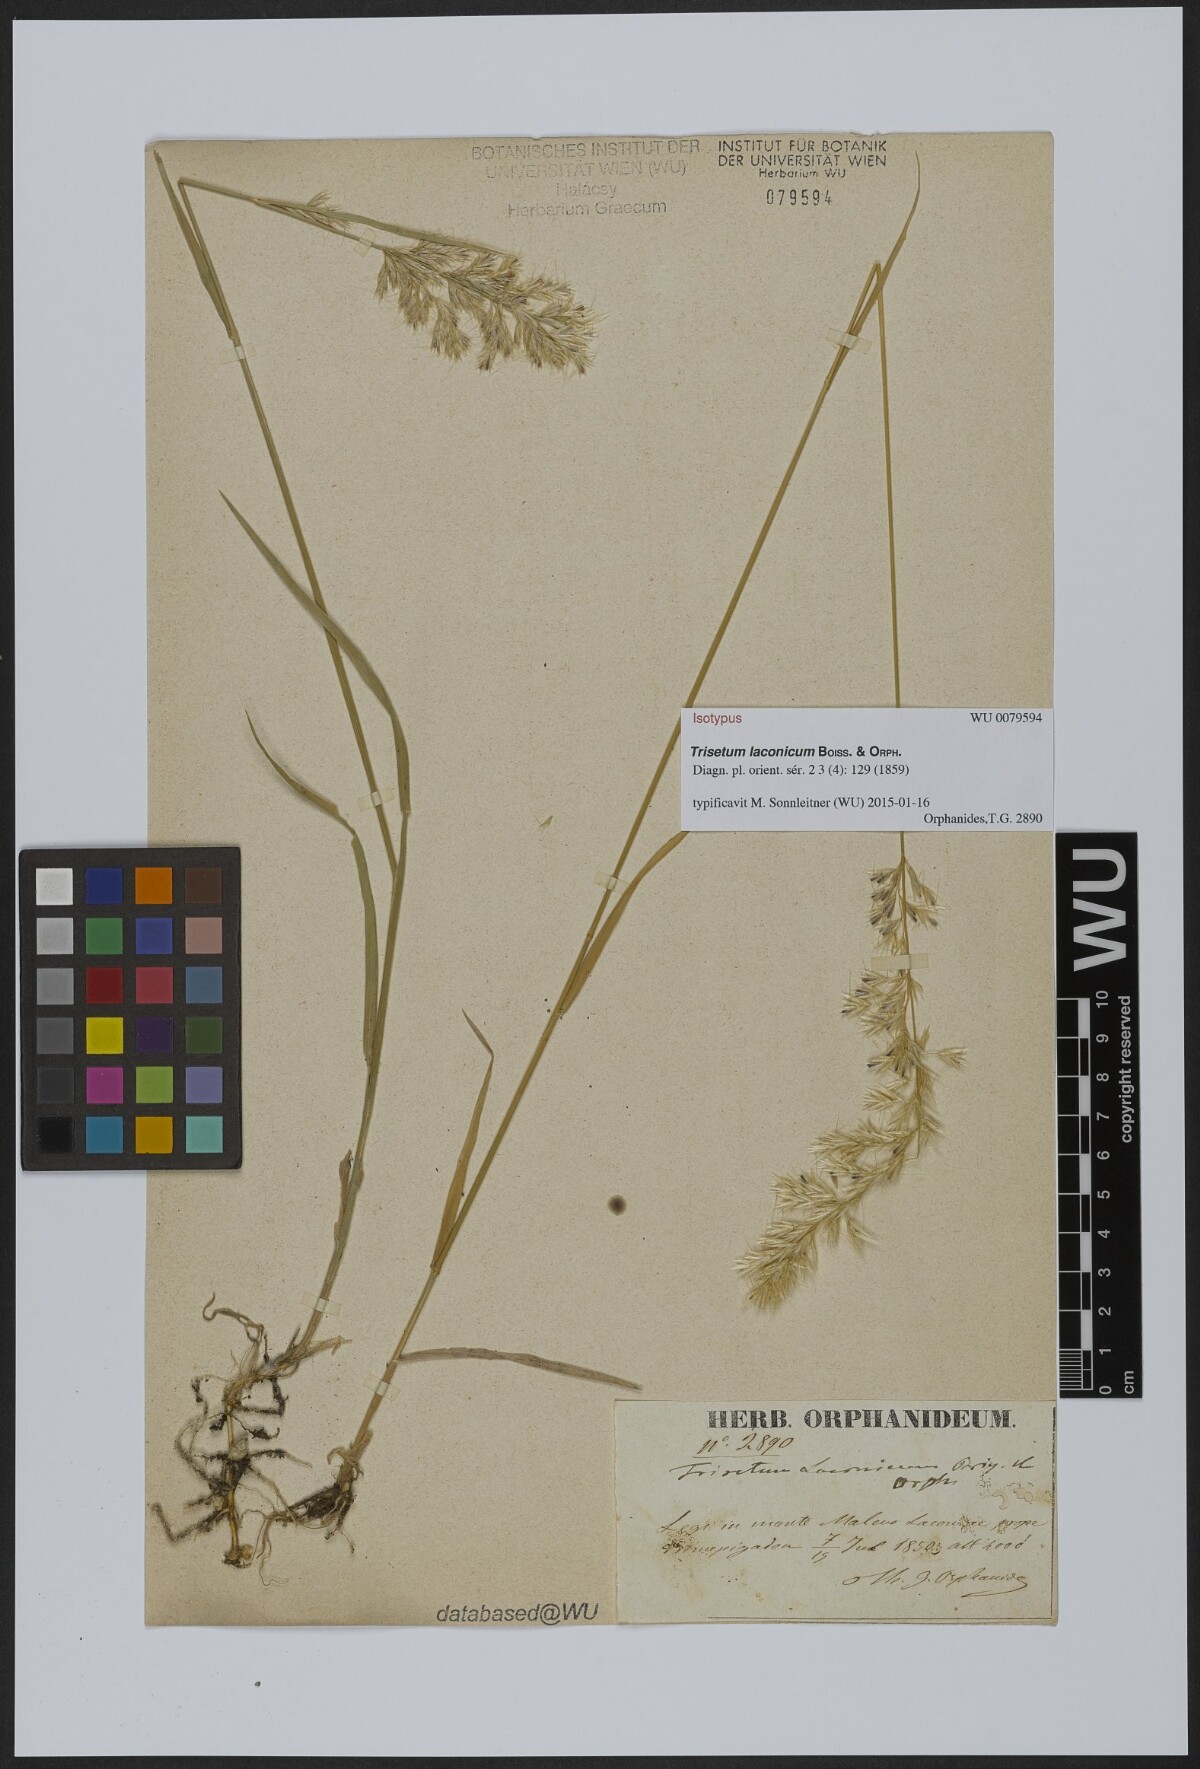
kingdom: Plantae
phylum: Tracheophyta
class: Liliopsida
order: Poales
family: Poaceae
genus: Trisetum
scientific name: Trisetum laconicum
